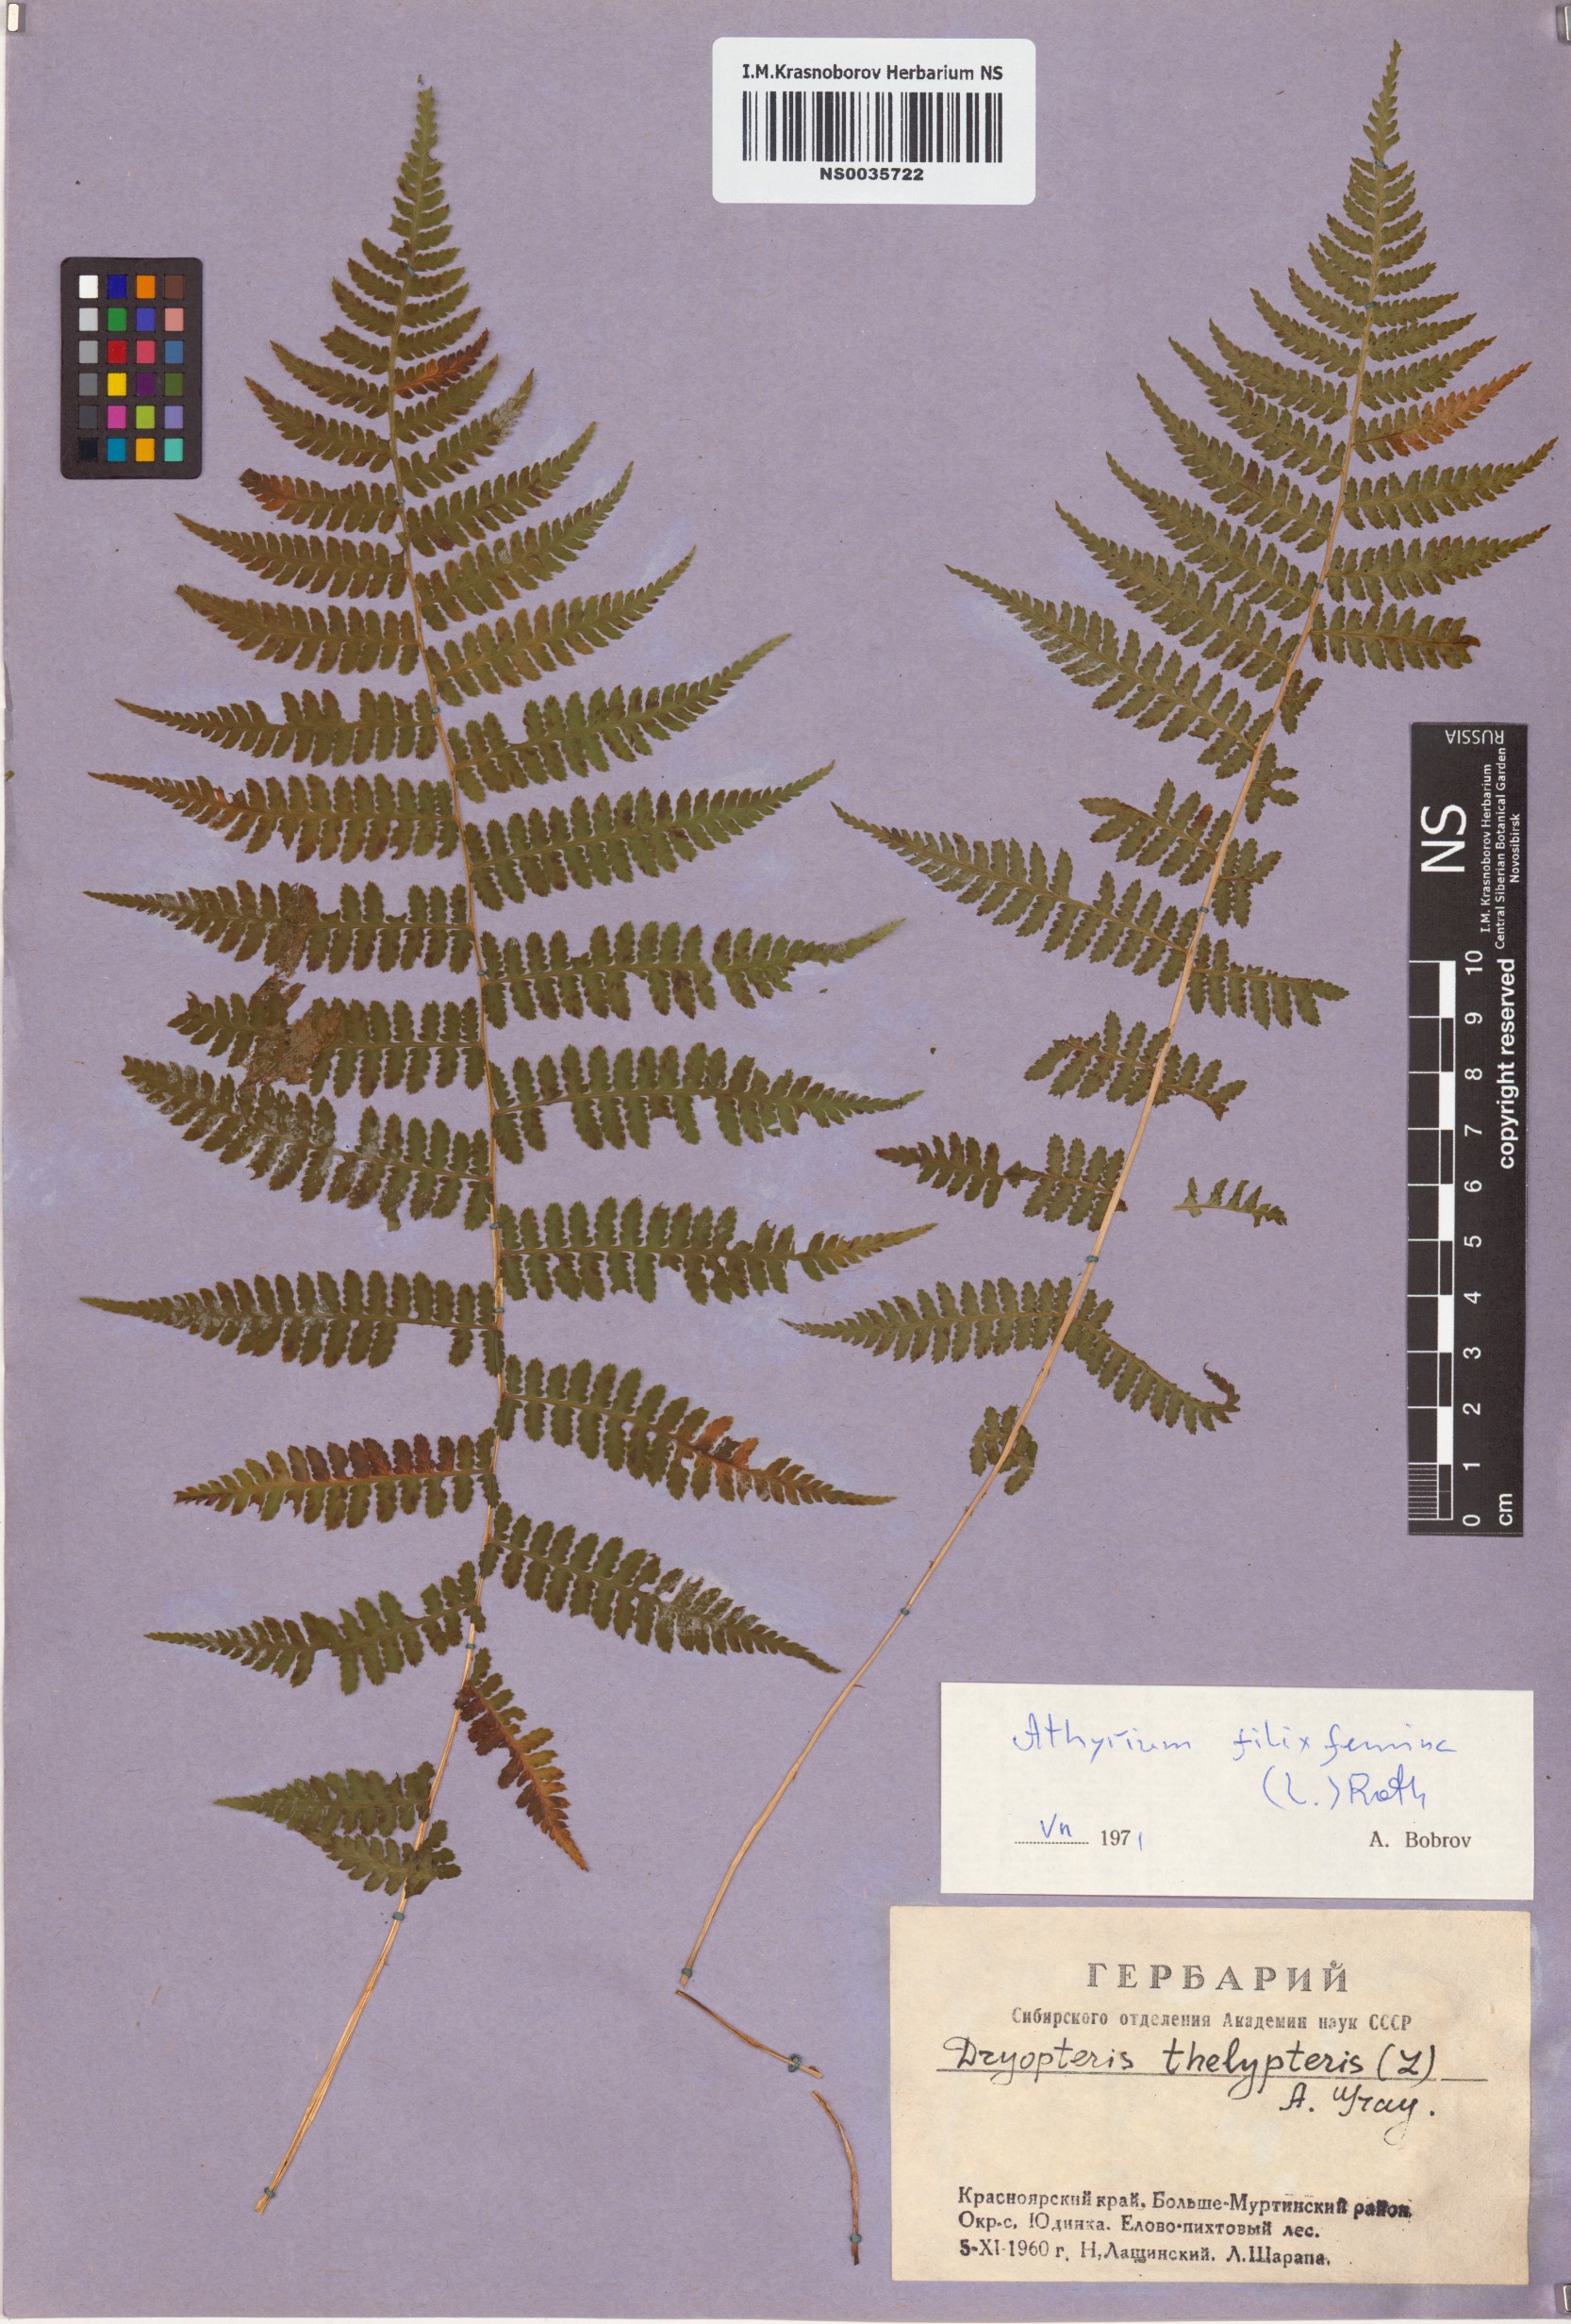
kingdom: Plantae
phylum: Tracheophyta
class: Polypodiopsida
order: Polypodiales
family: Athyriaceae
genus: Athyrium
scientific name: Athyrium filix-femina
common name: Lady fern
